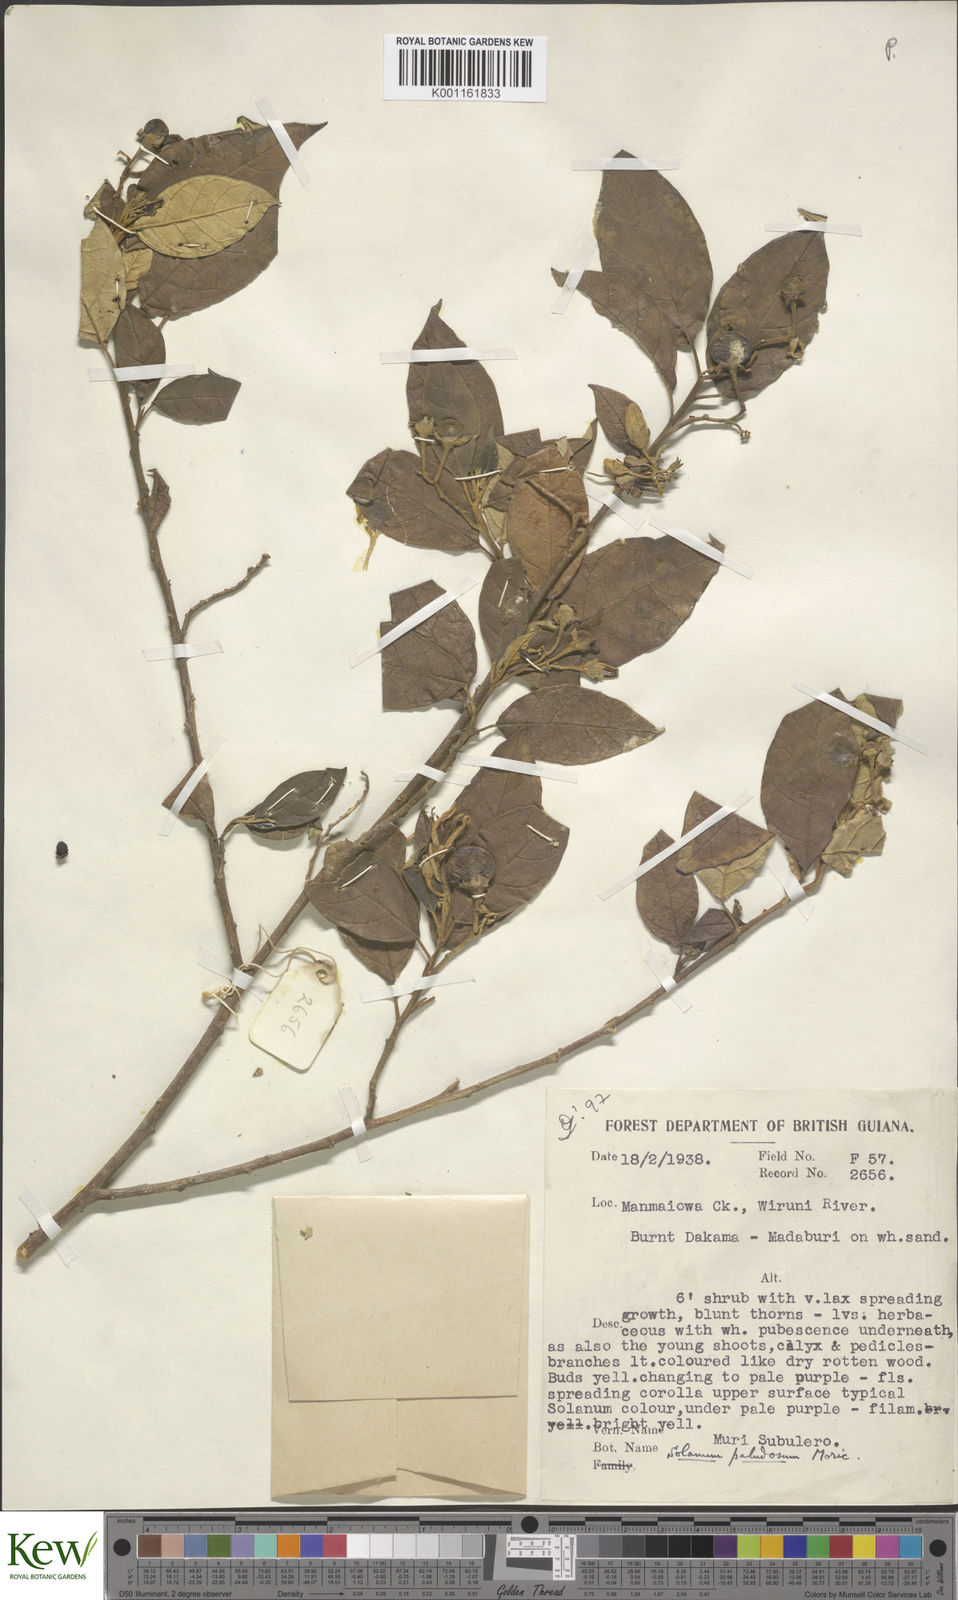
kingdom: Plantae
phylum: Tracheophyta
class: Magnoliopsida
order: Solanales
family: Solanaceae
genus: Solanum
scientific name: Solanum paludosum
